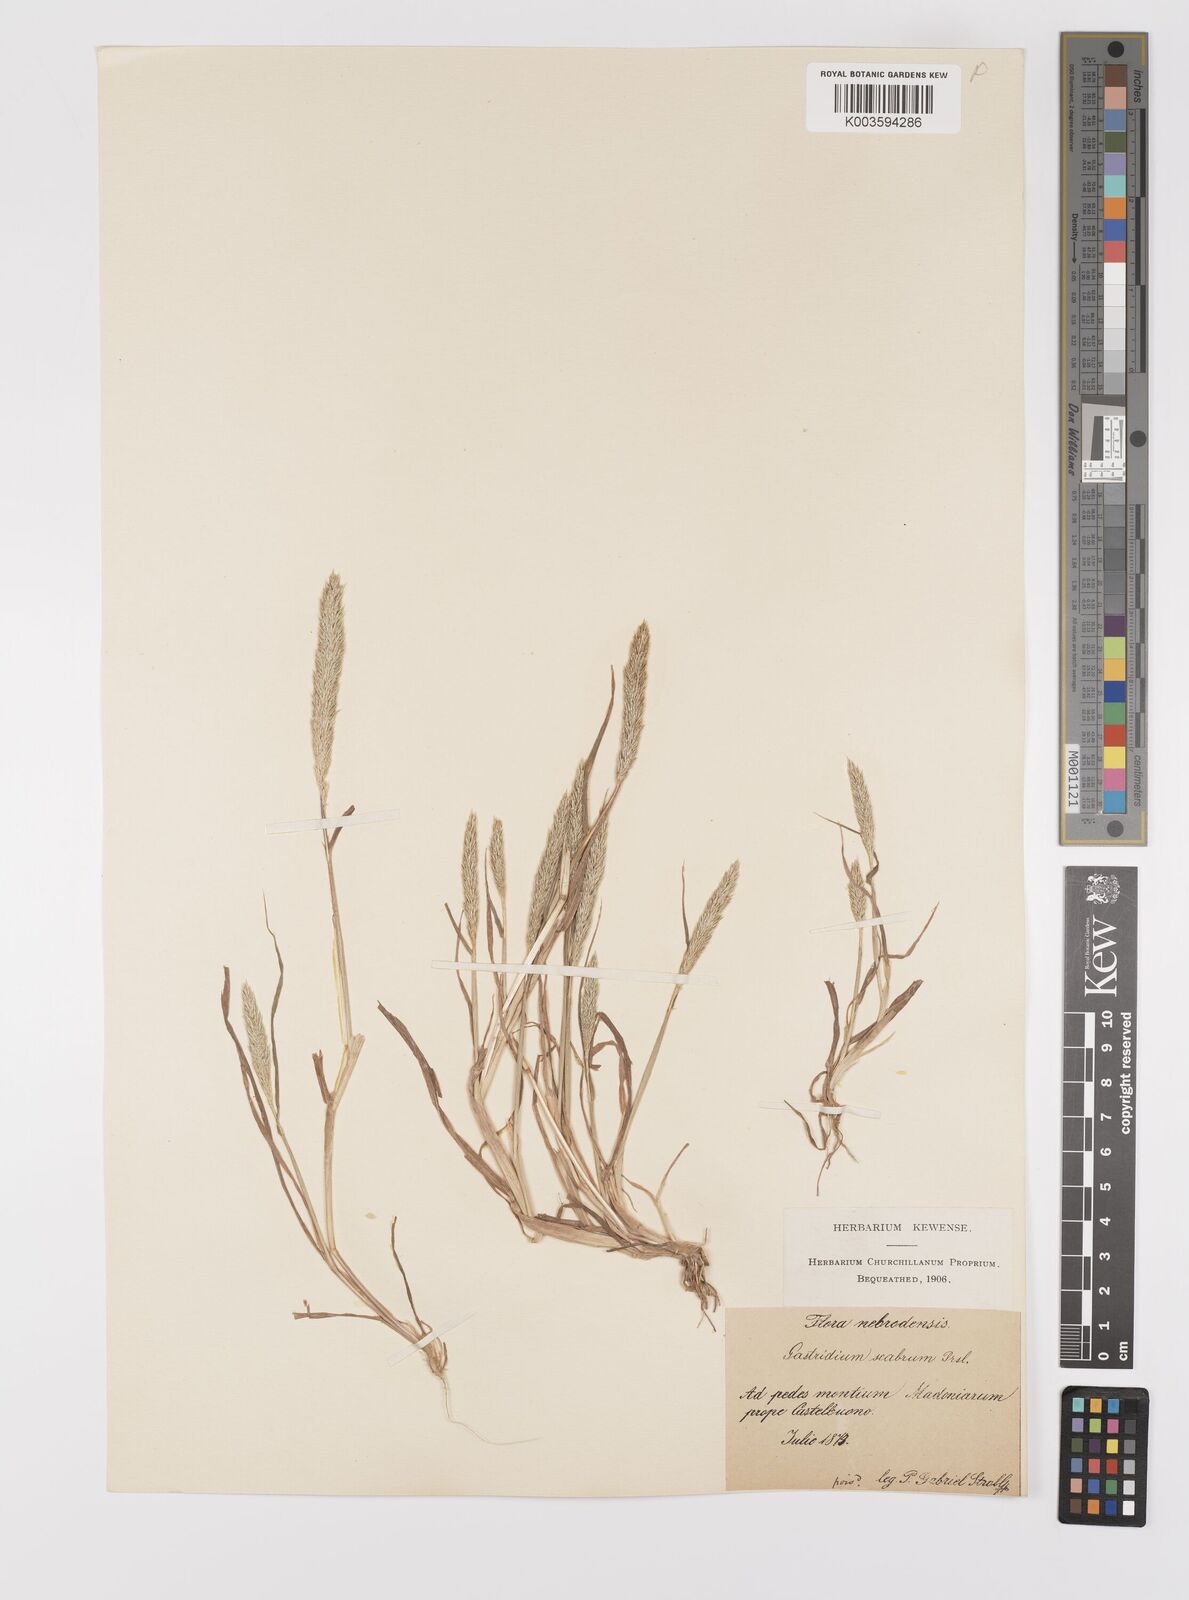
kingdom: Plantae
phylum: Tracheophyta
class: Liliopsida
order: Poales
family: Poaceae
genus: Gastridium
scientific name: Gastridium ventricosum
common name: Nit-grass
